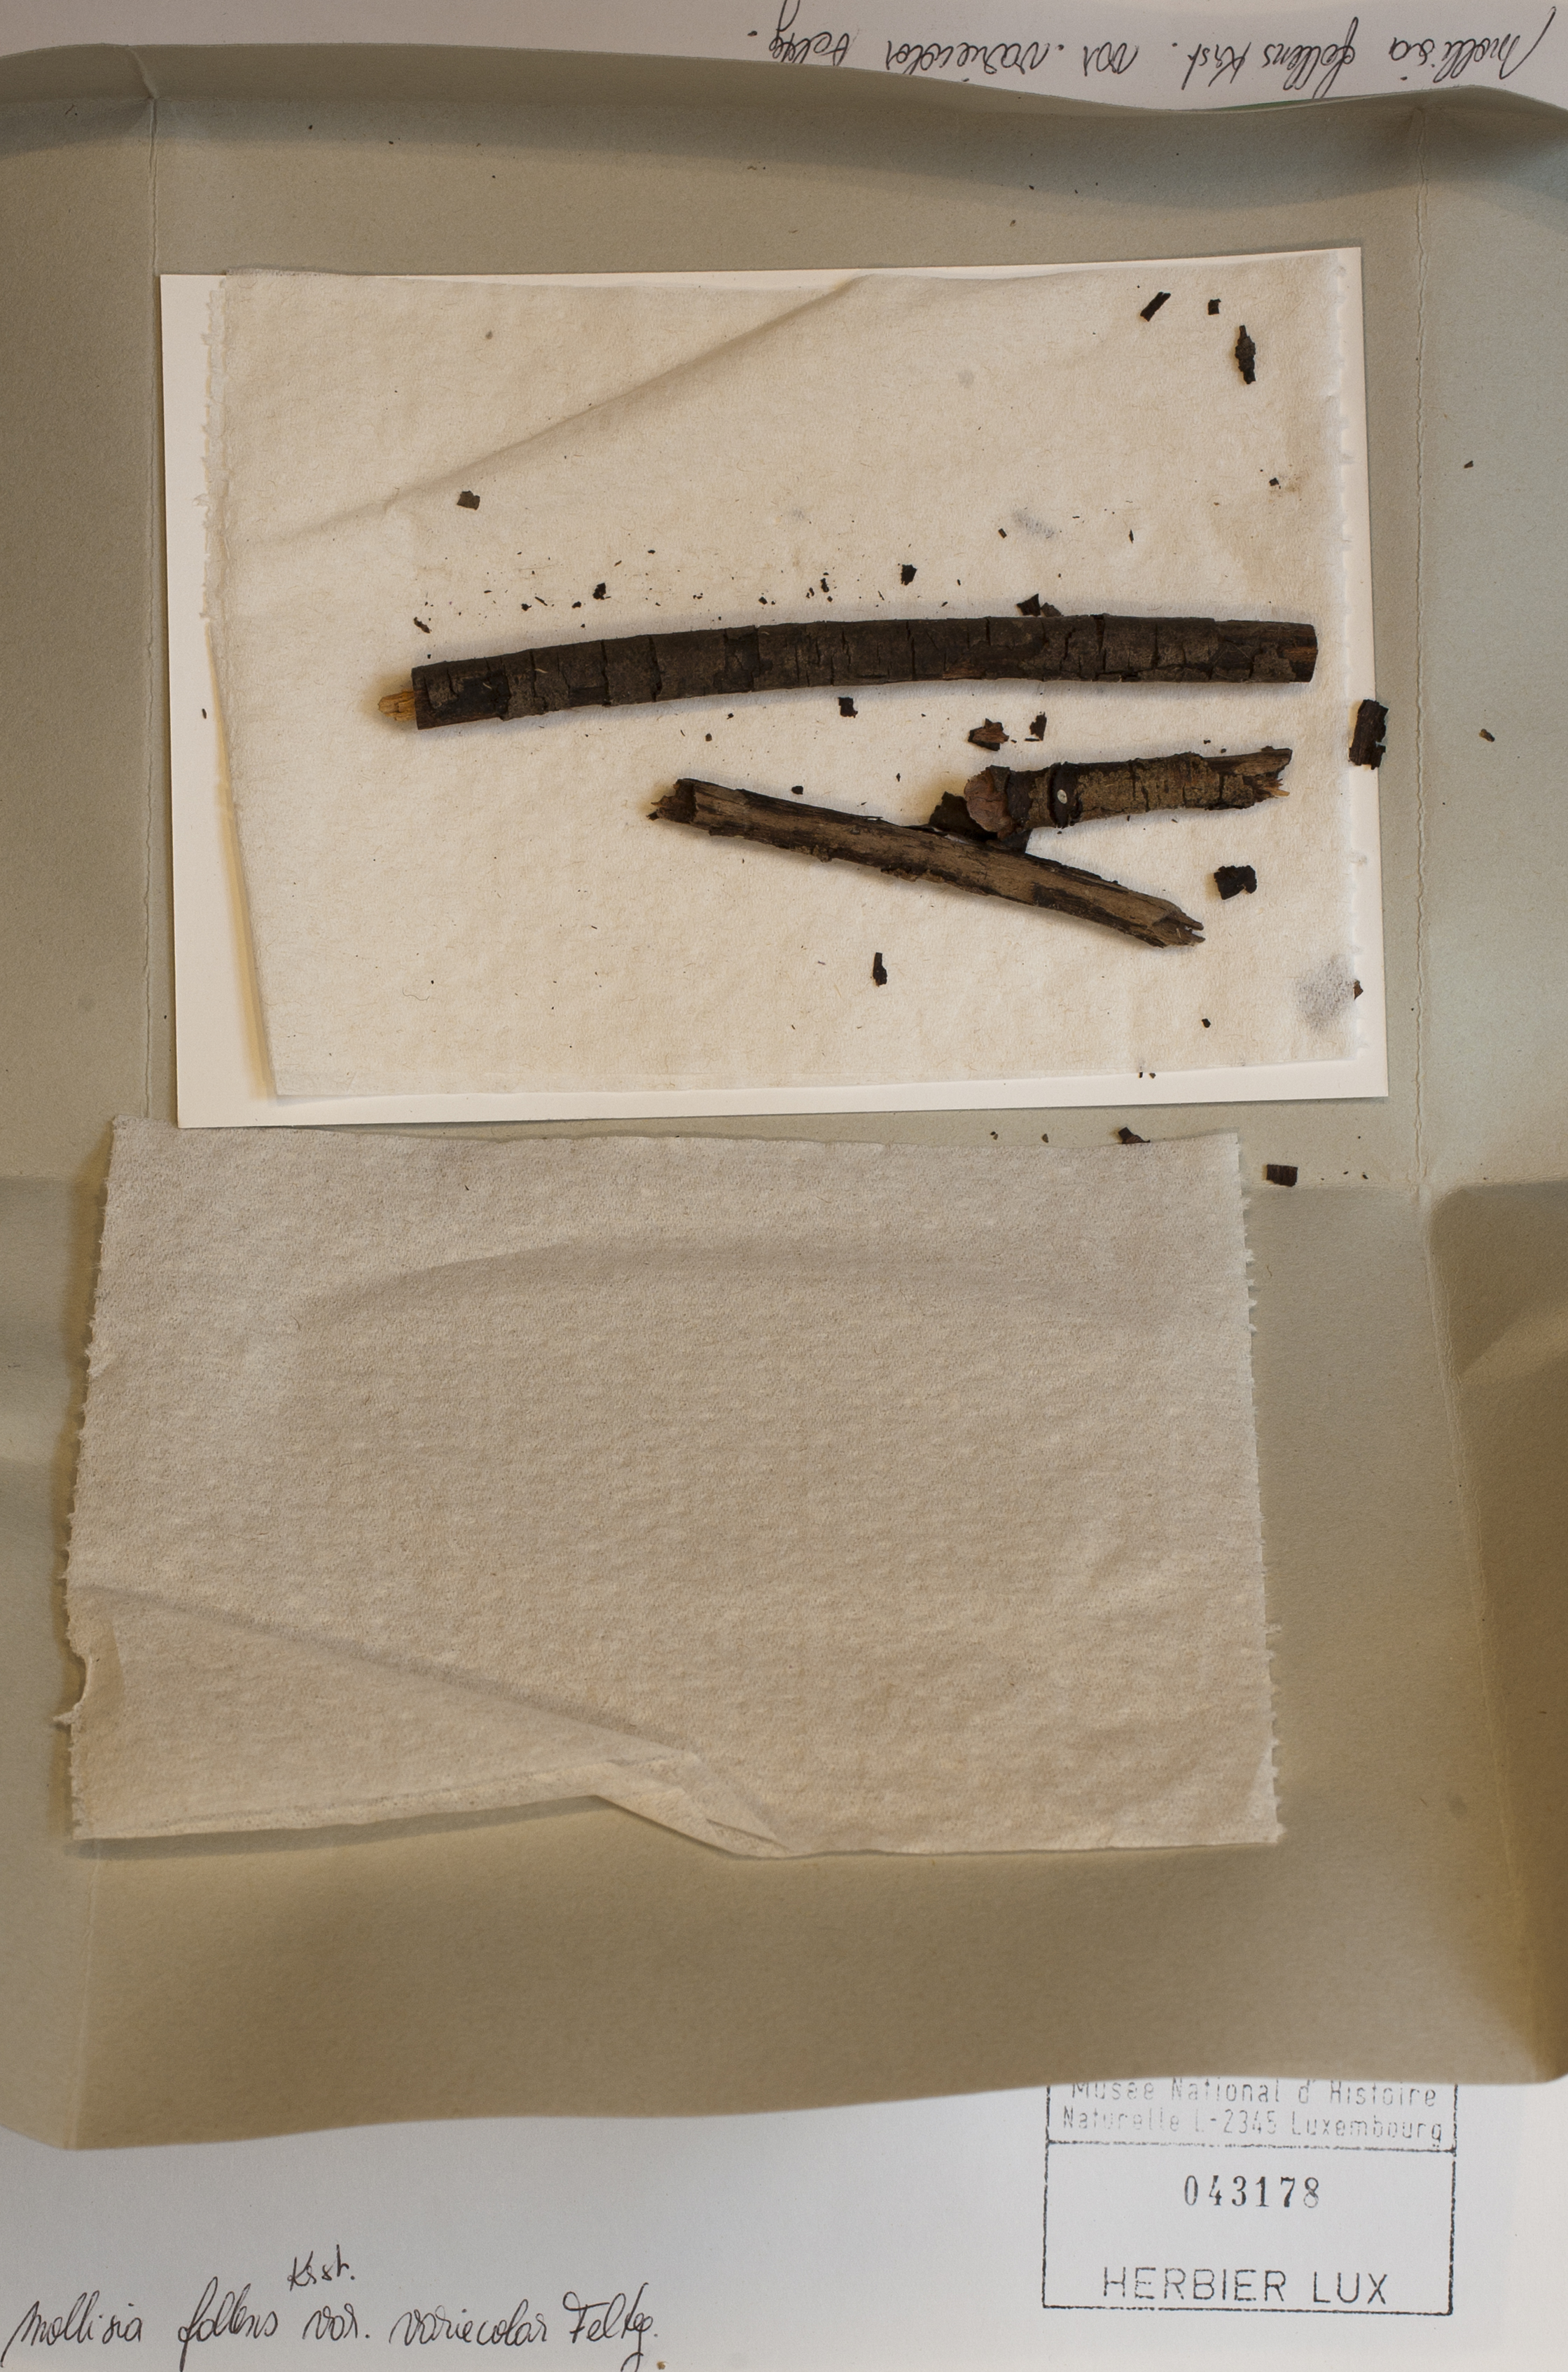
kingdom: Fungi
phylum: Ascomycota
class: Leotiomycetes
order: Helotiales
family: Mollisiaceae
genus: Mollisia
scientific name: Mollisia fallens
